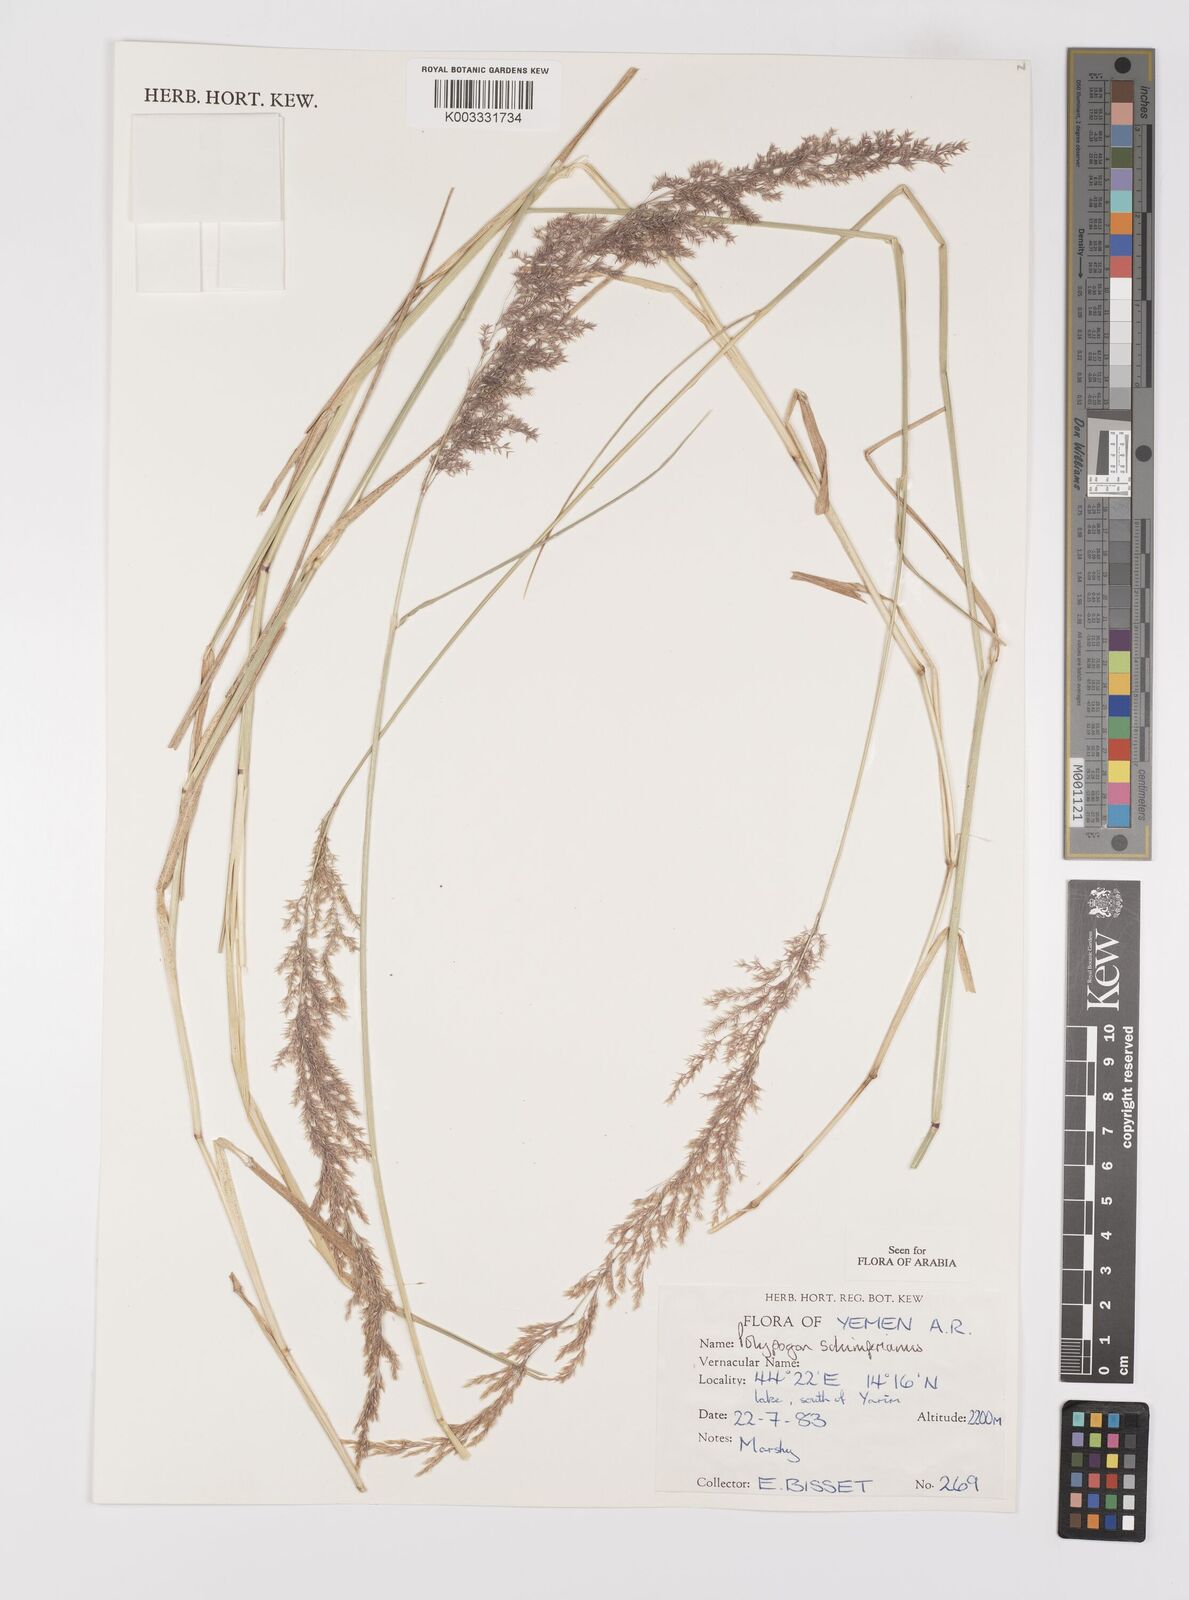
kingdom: Plantae
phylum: Tracheophyta
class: Liliopsida
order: Poales
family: Poaceae
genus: Polypogon
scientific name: Polypogon schimperianus
